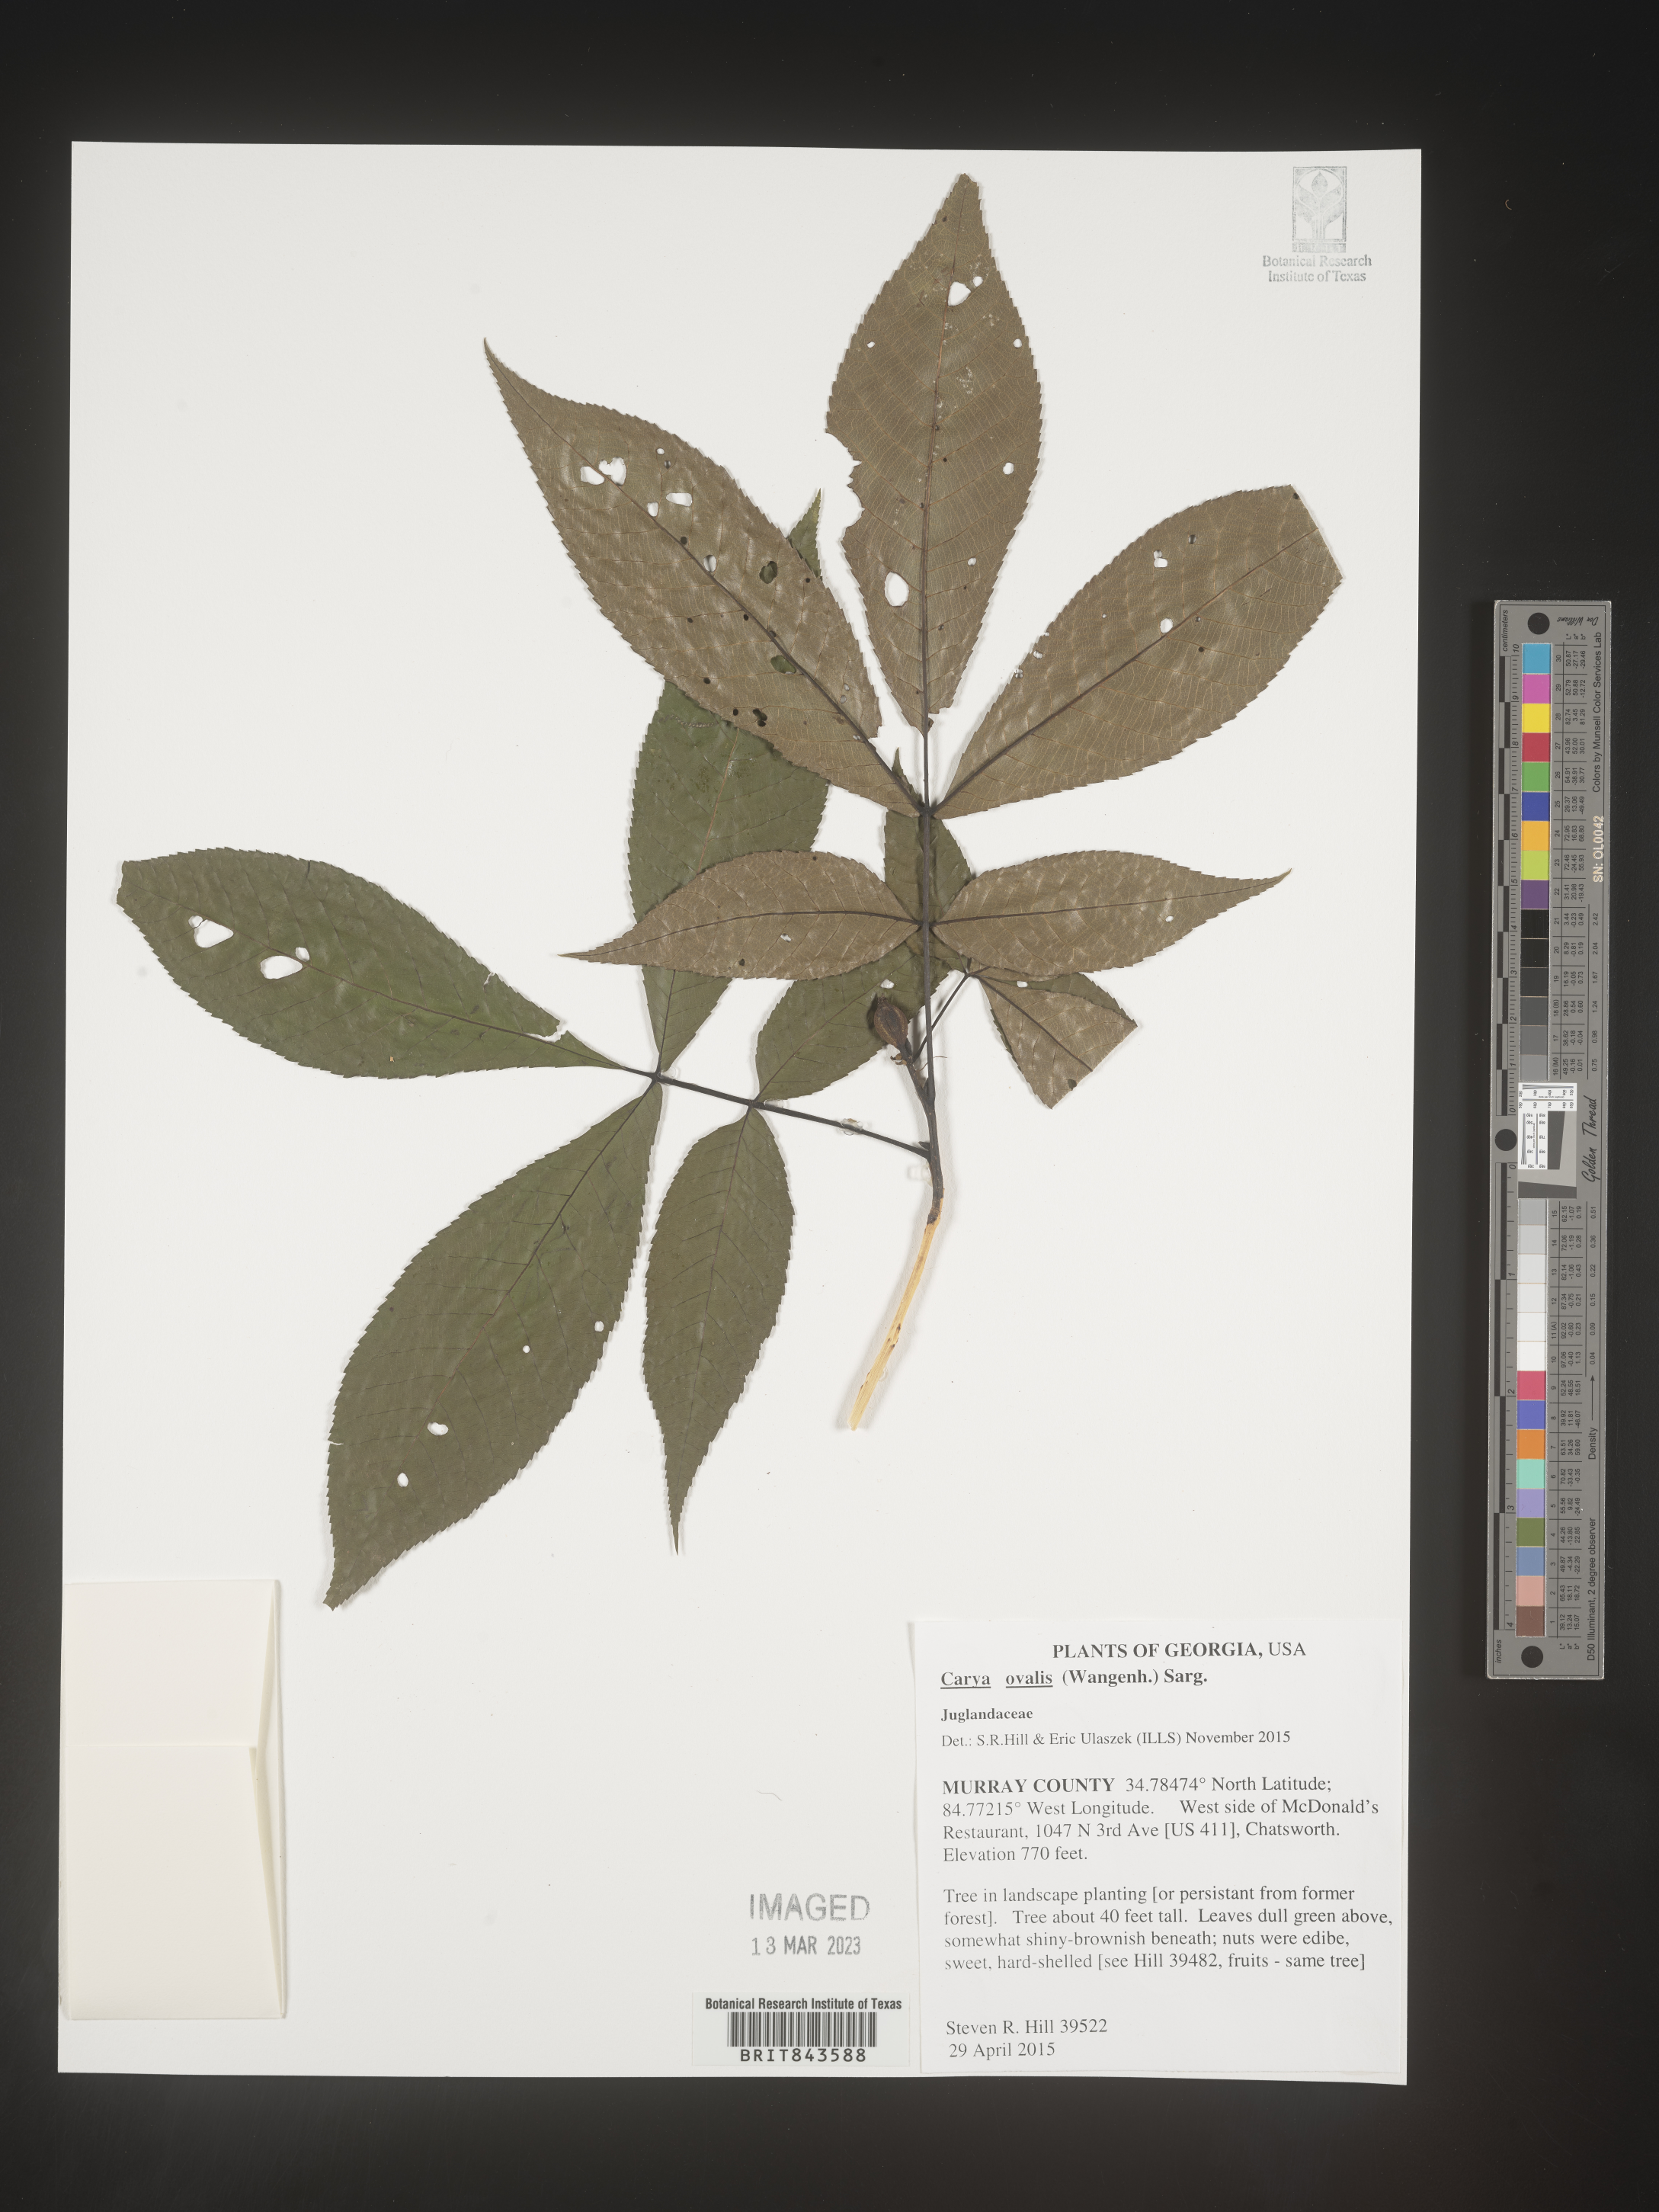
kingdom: Plantae
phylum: Tracheophyta
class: Magnoliopsida
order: Fagales
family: Juglandaceae
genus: Carya
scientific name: Carya ovalis
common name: False shagbark
